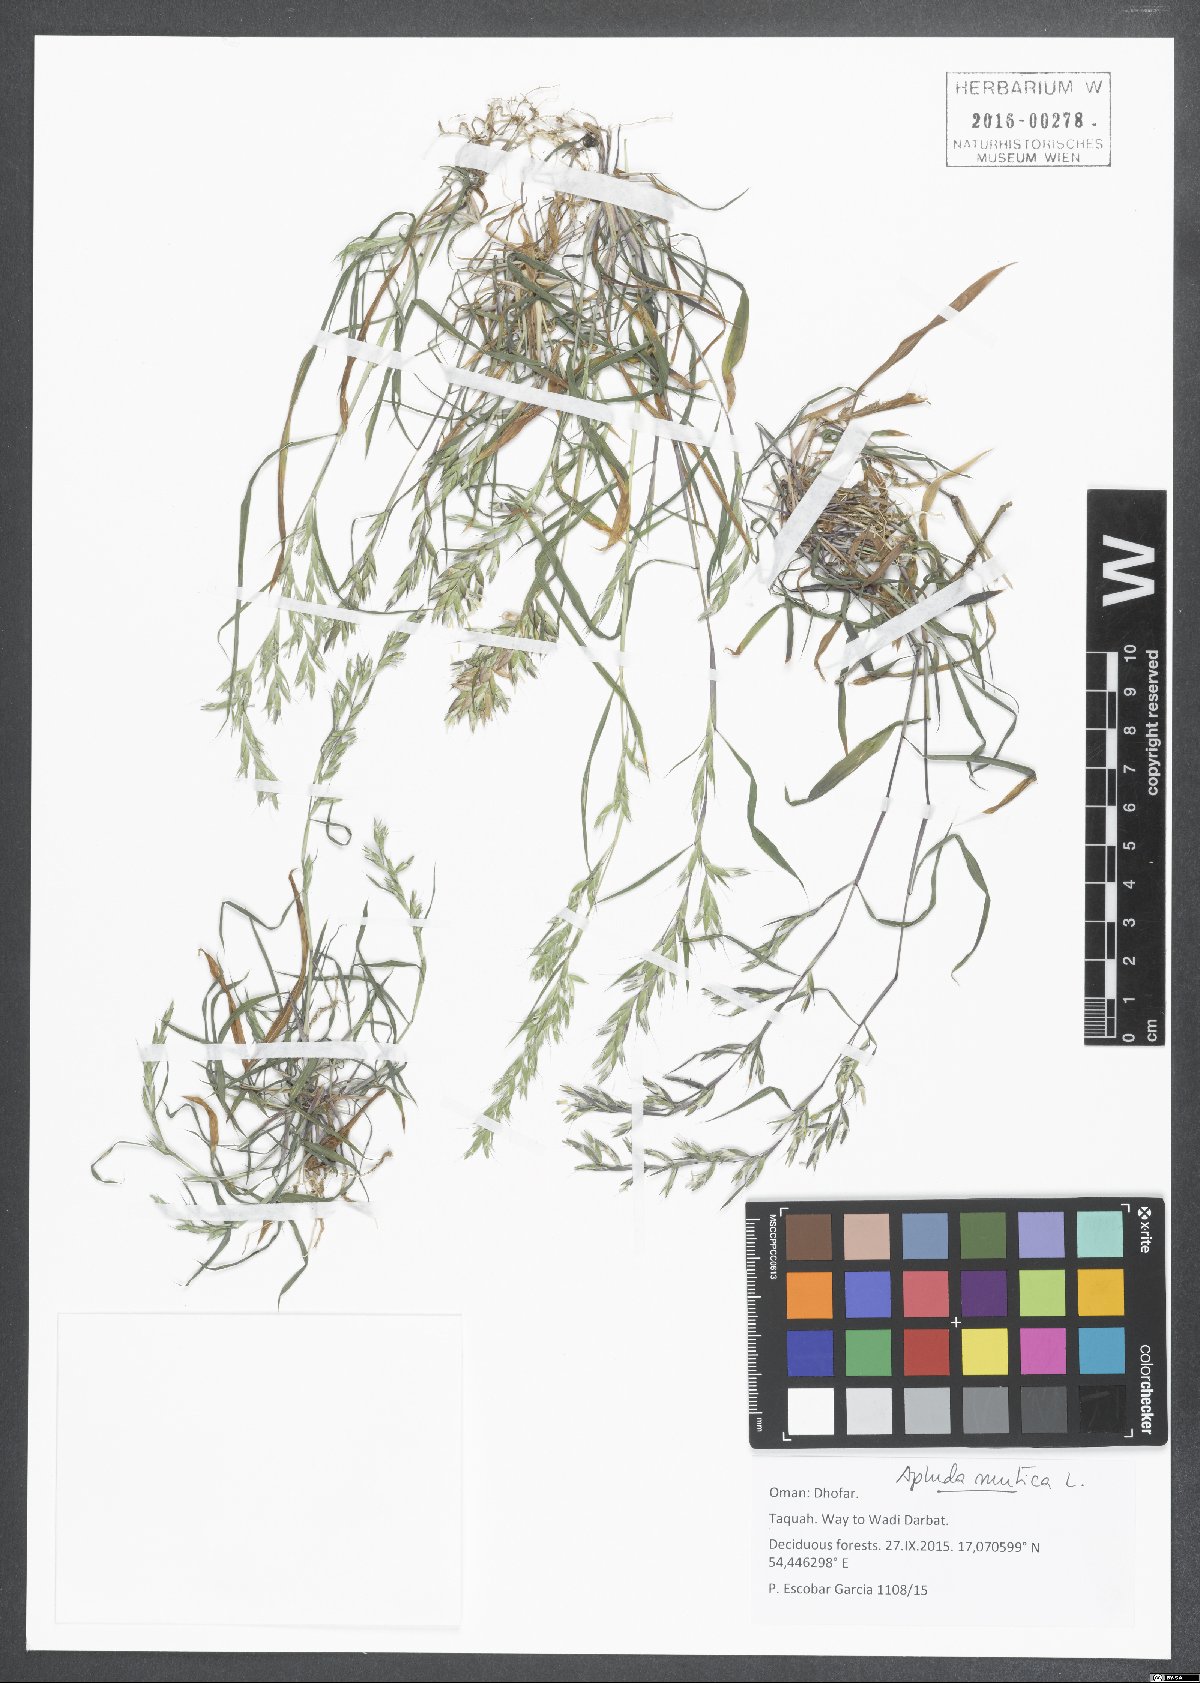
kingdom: Plantae
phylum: Tracheophyta
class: Liliopsida
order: Poales
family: Poaceae
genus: Apluda
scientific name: Apluda mutica
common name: Mauritian grass
